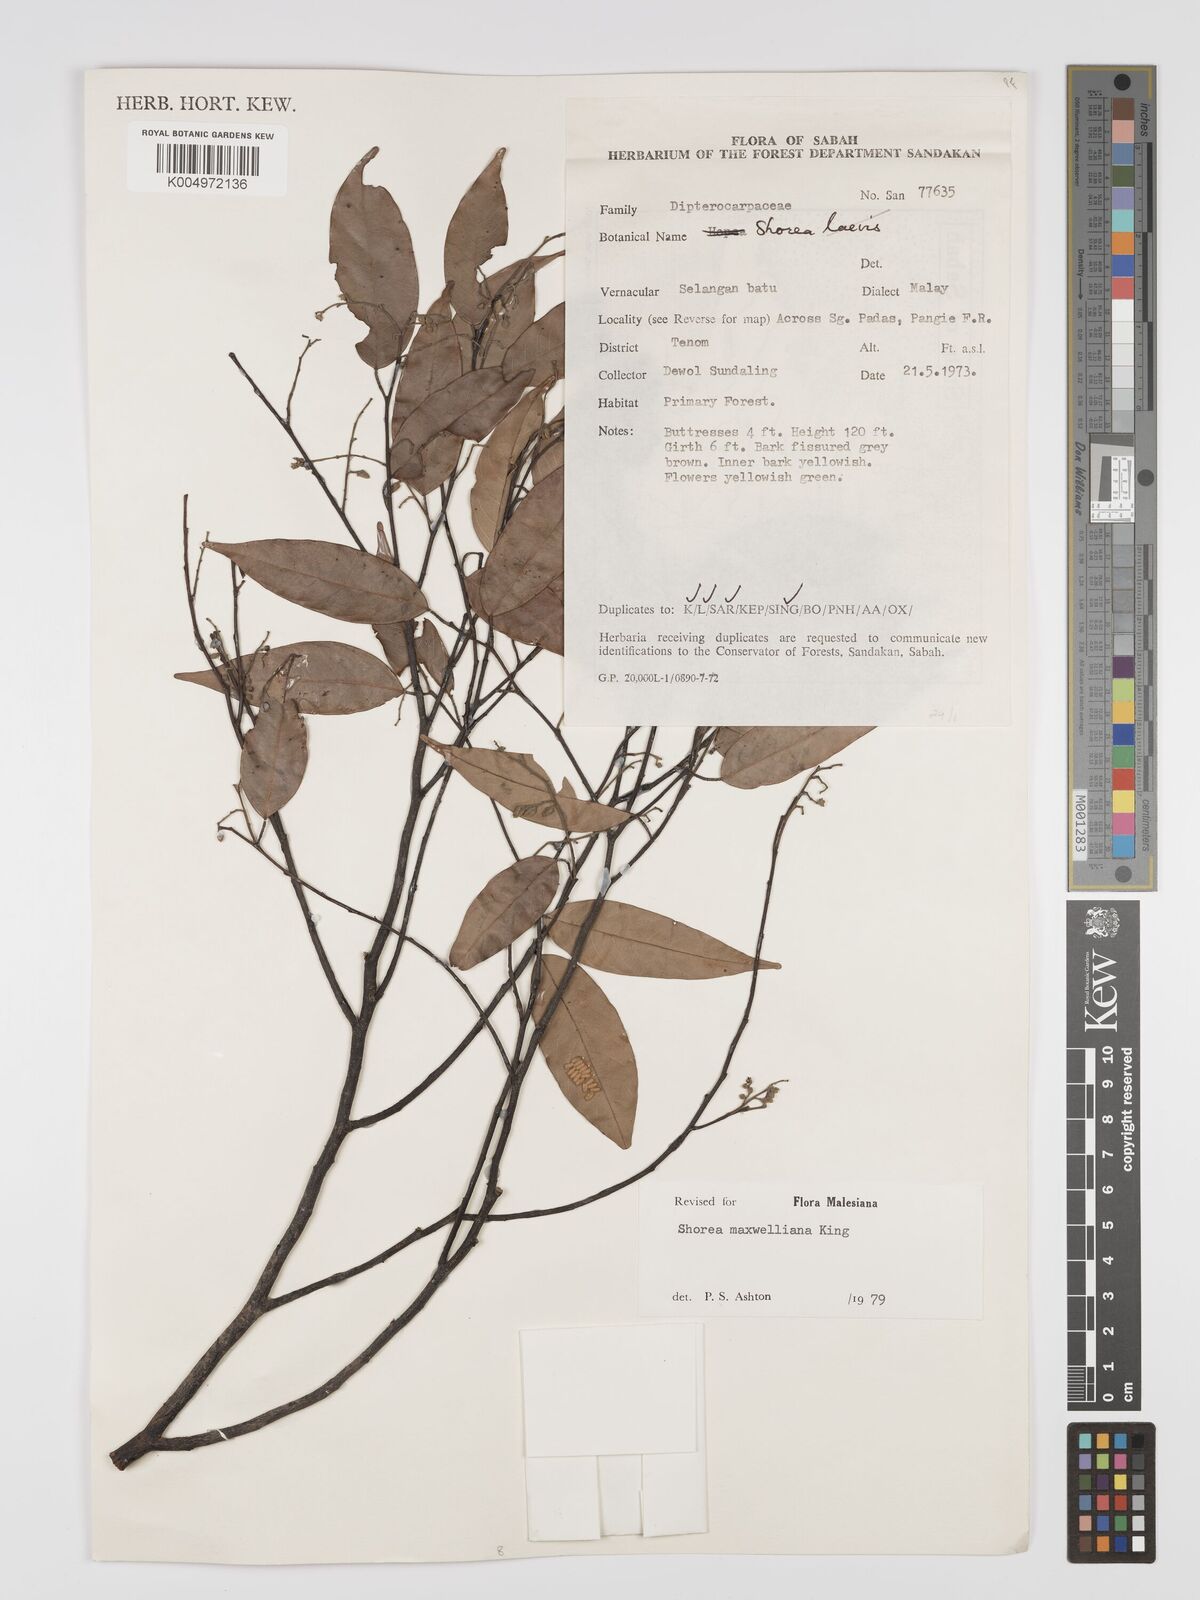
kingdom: Plantae
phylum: Tracheophyta
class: Magnoliopsida
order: Malvales
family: Dipterocarpaceae
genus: Shorea
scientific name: Shorea maxwelliana
